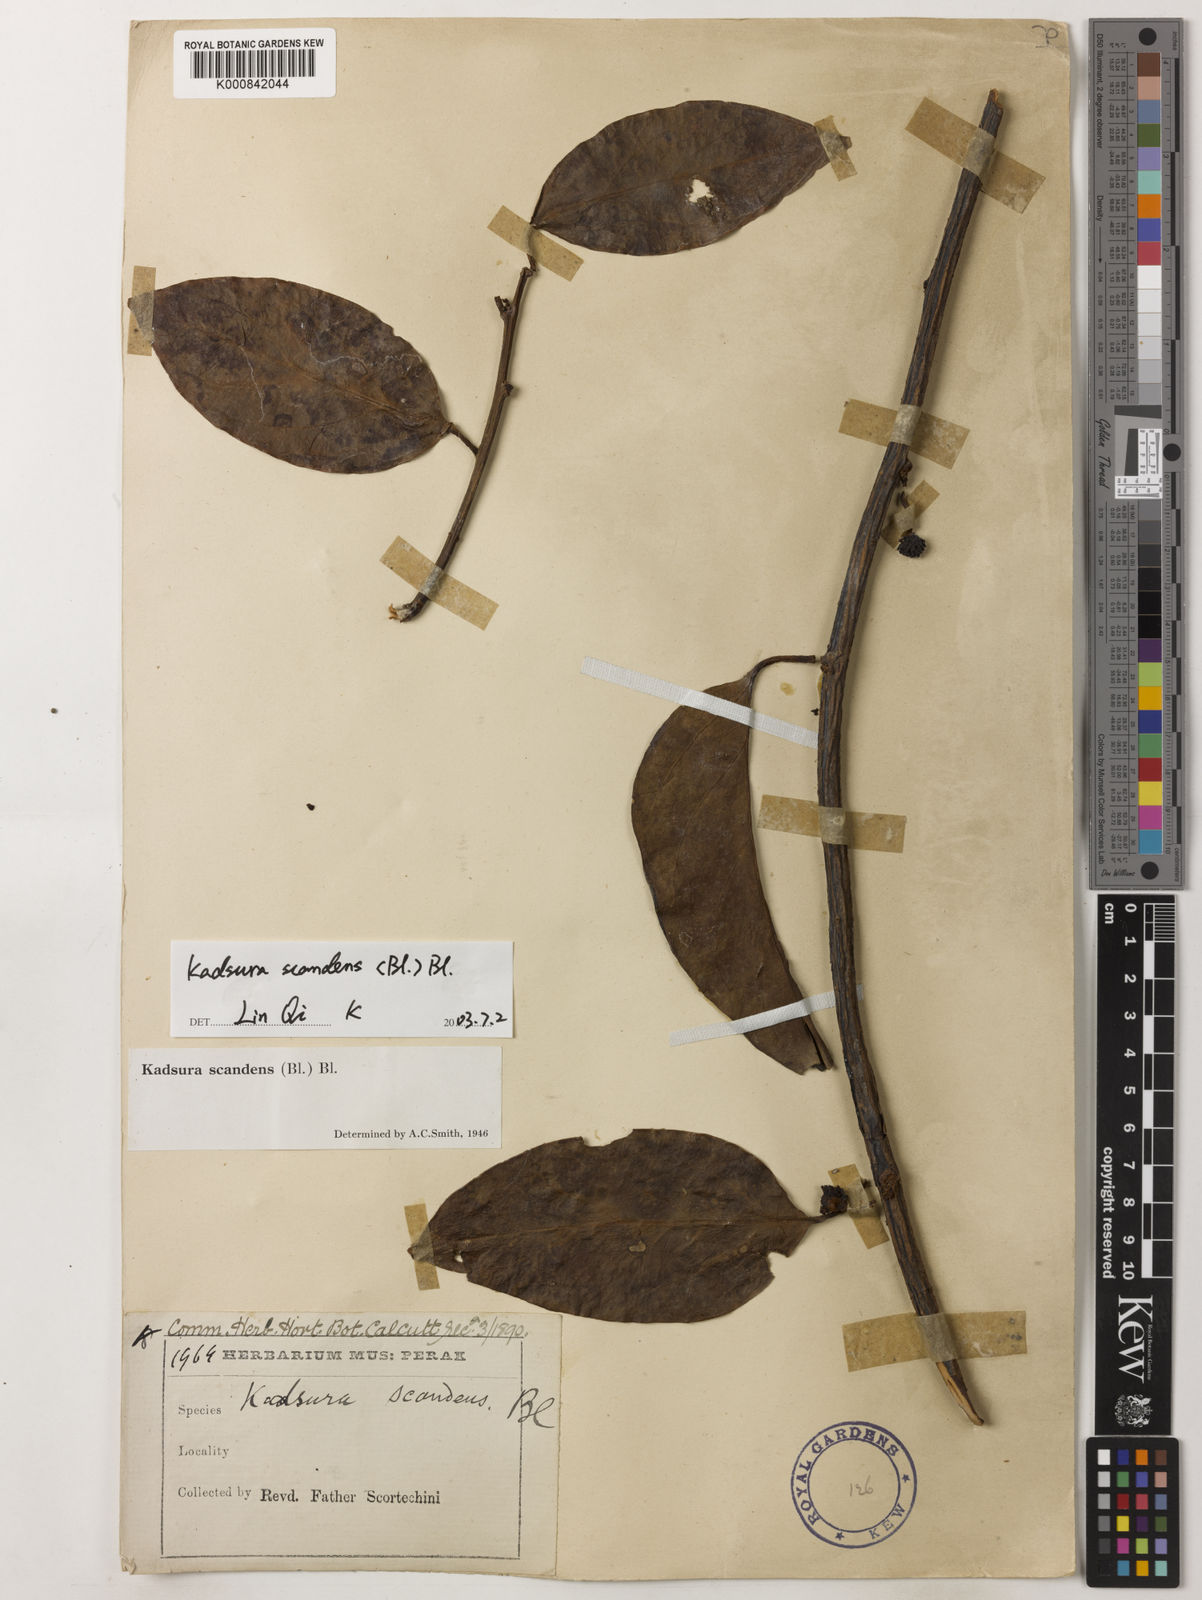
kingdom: Plantae
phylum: Tracheophyta
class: Magnoliopsida
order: Austrobaileyales
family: Schisandraceae
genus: Kadsura
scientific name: Kadsura scandens
